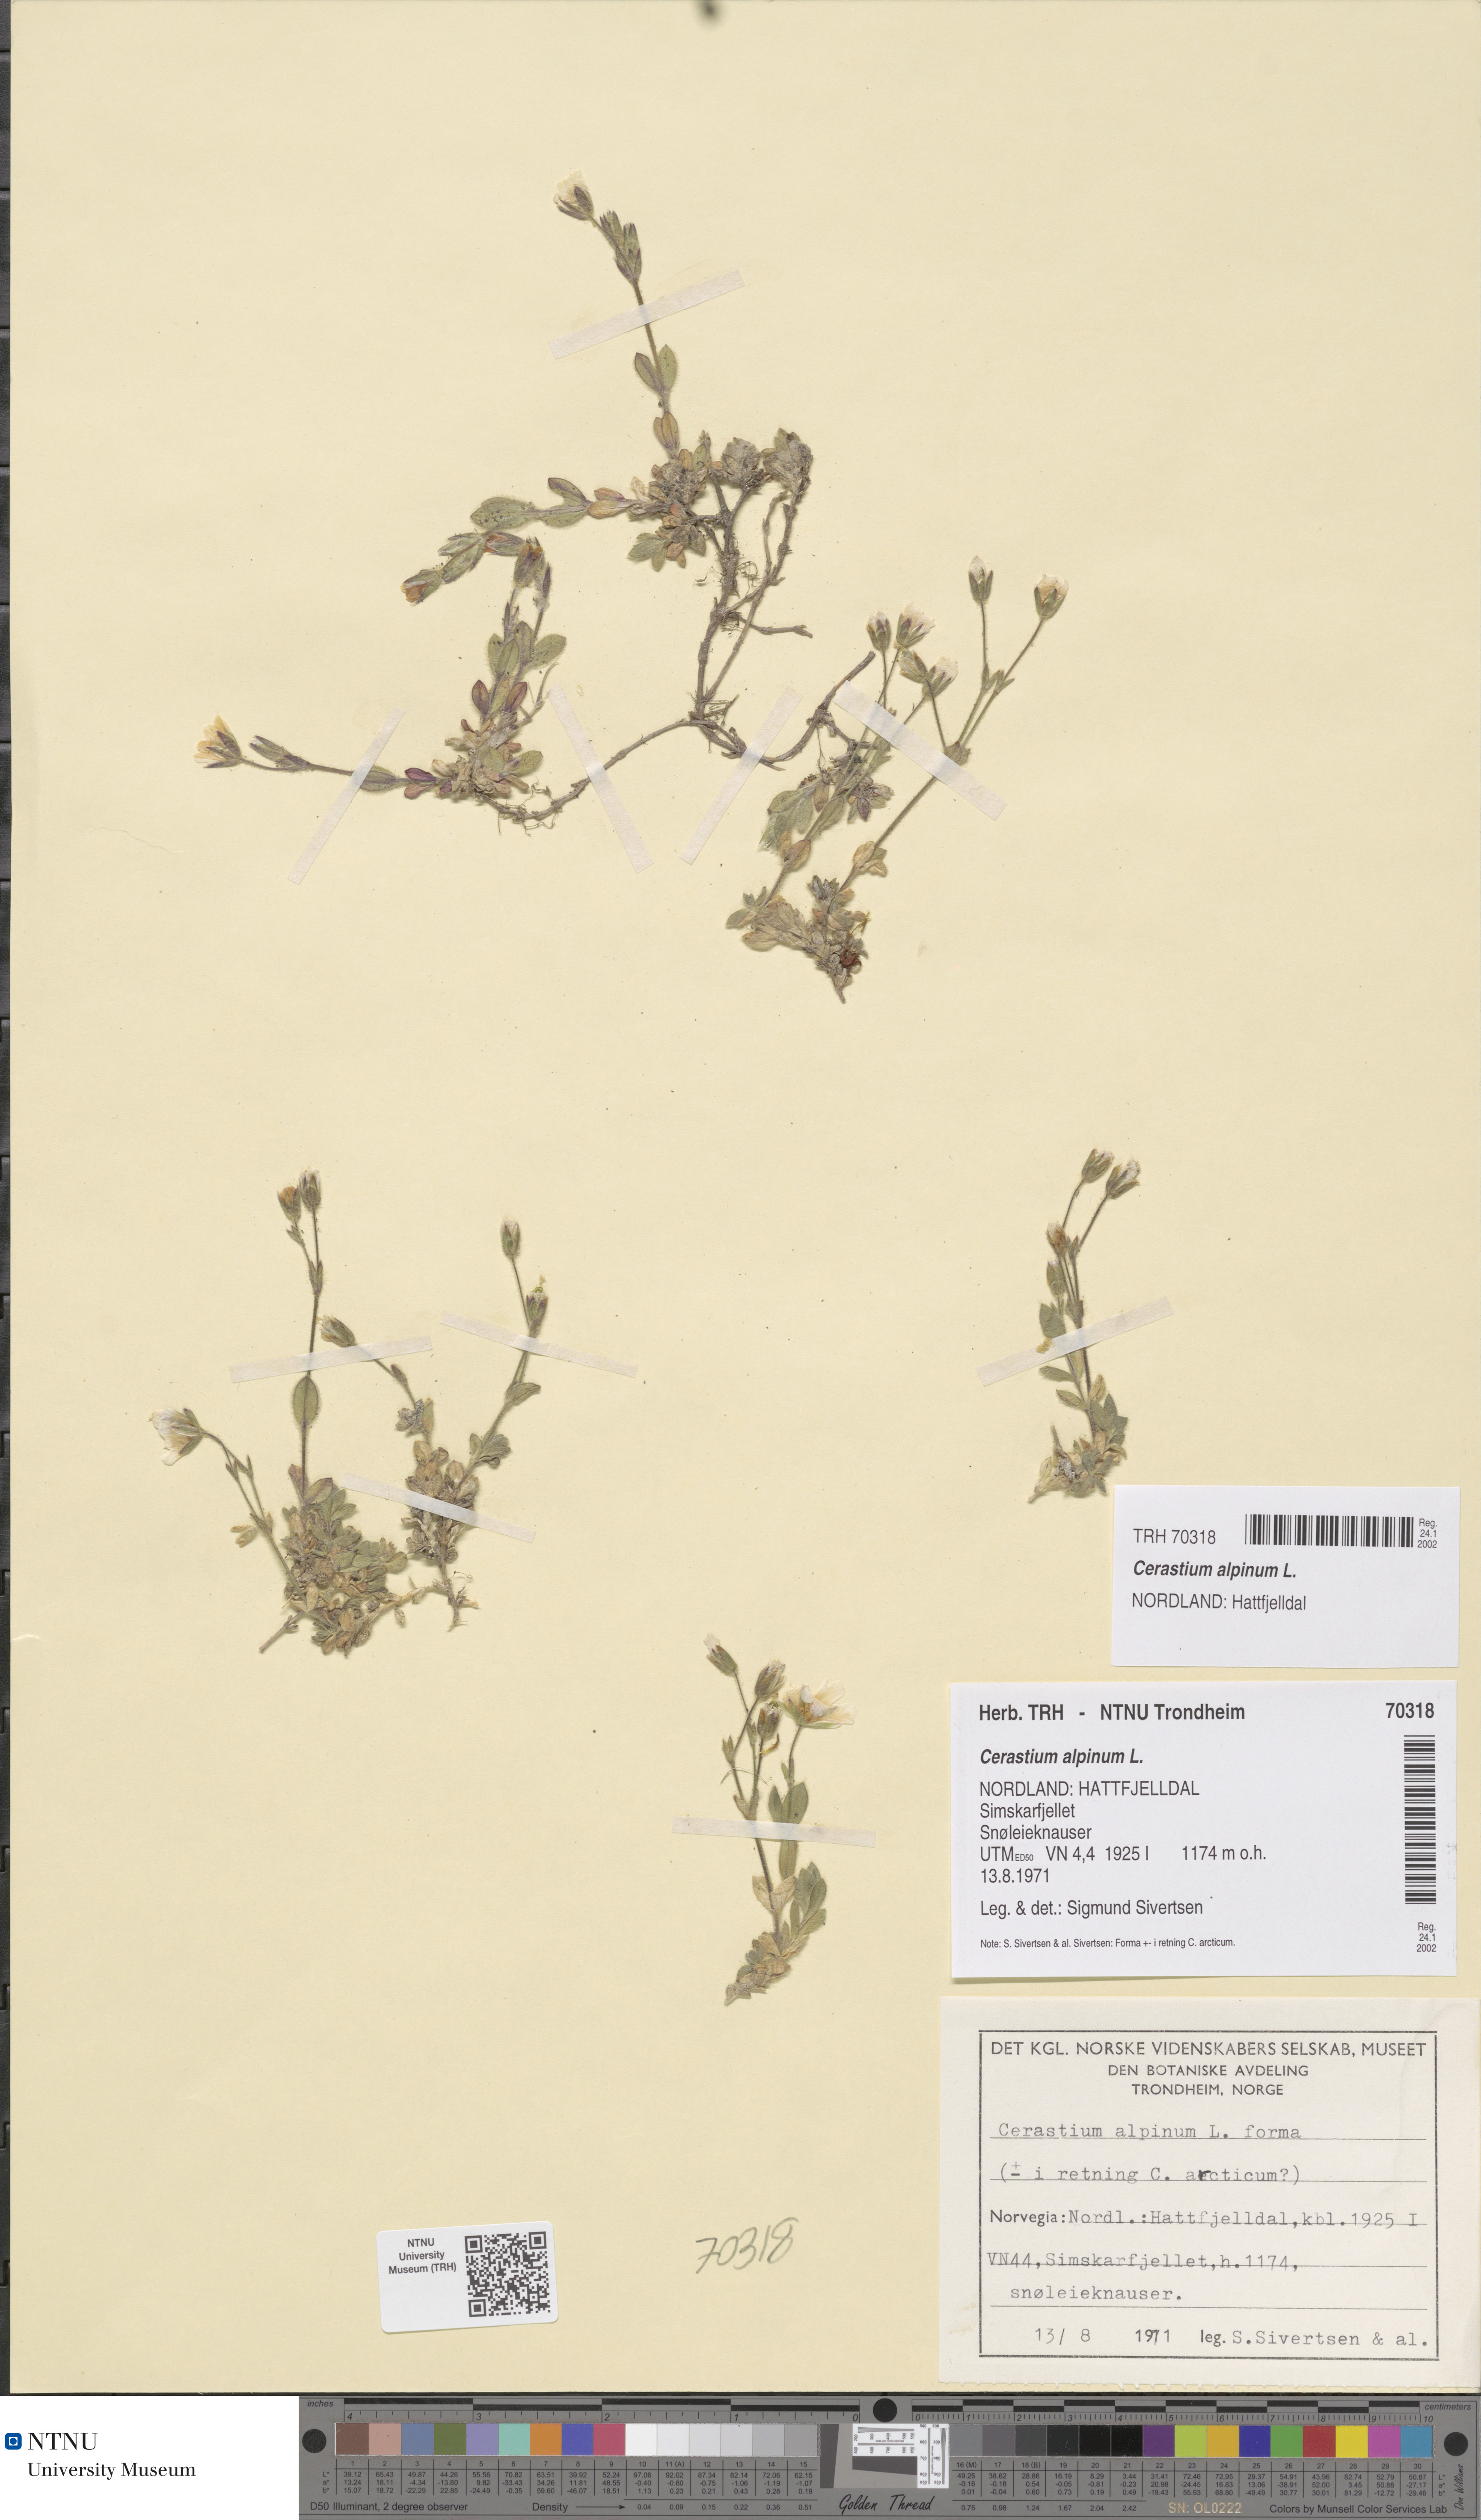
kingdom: Plantae
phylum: Tracheophyta
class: Magnoliopsida
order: Caryophyllales
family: Caryophyllaceae
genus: Cerastium
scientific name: Cerastium alpinum
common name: Alpine mouse-ear
